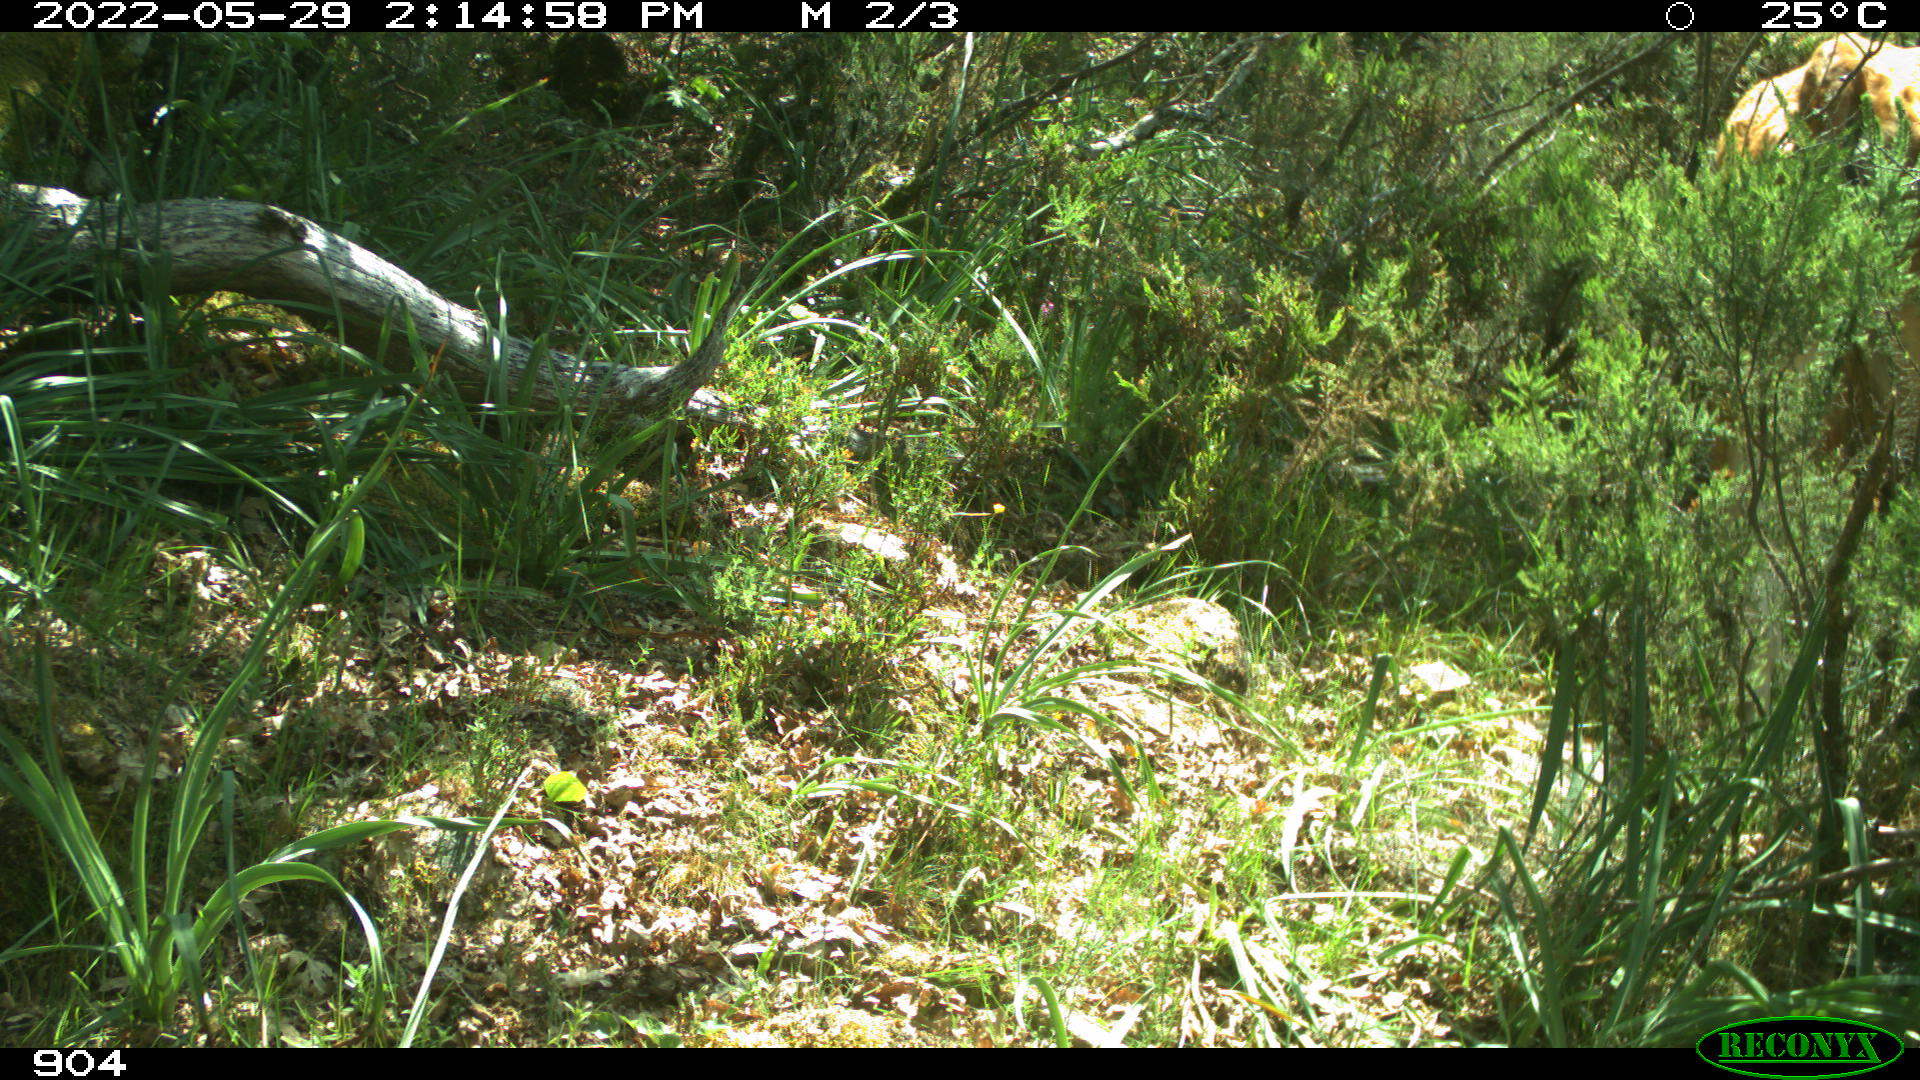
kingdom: Animalia
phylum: Chordata
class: Mammalia
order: Artiodactyla
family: Bovidae
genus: Bos
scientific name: Bos taurus
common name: Domesticated cattle
